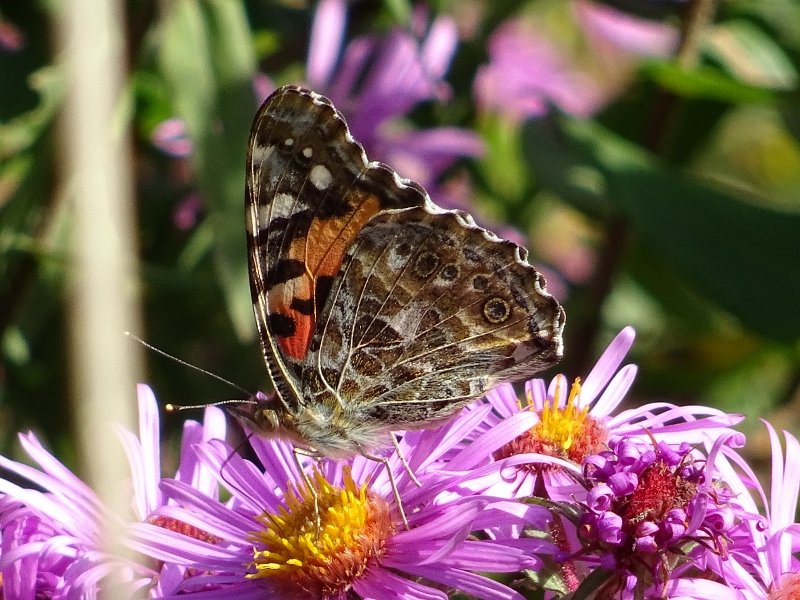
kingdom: Animalia
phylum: Arthropoda
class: Insecta
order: Lepidoptera
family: Nymphalidae
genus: Vanessa
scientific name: Vanessa cardui
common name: Painted Lady
